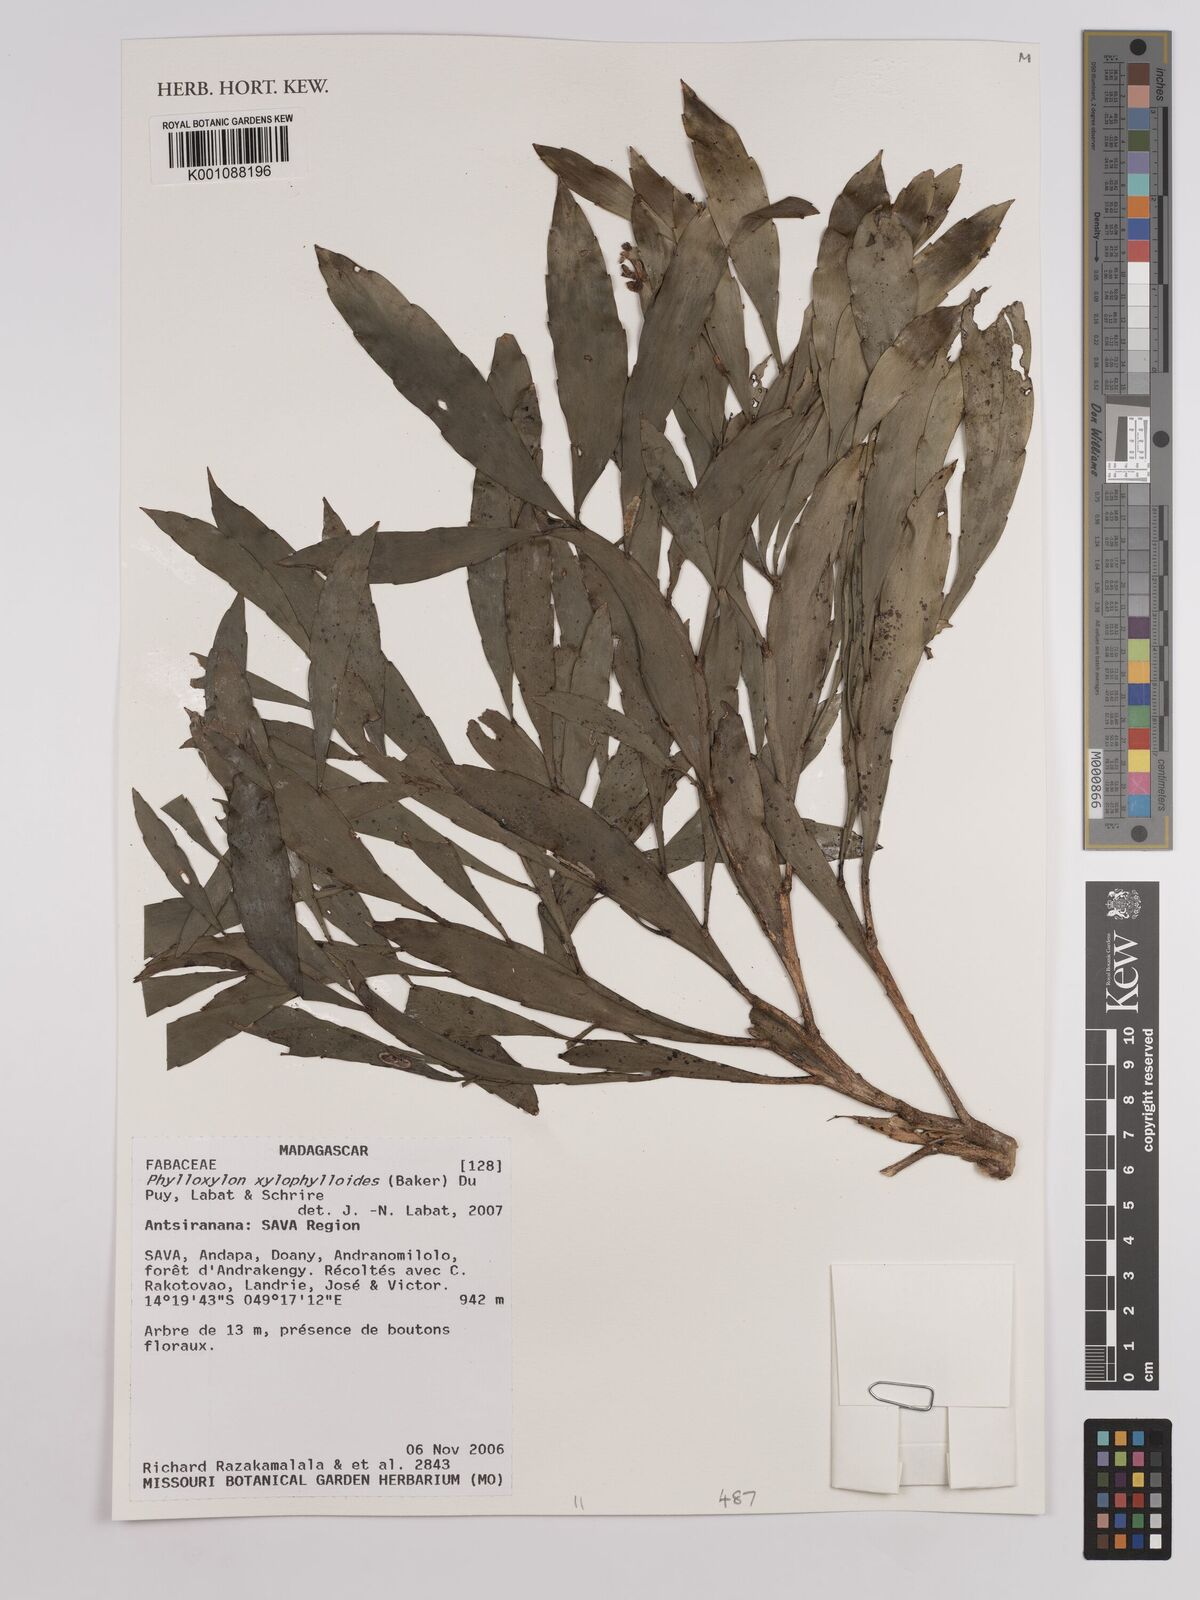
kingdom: Plantae
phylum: Tracheophyta
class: Magnoliopsida
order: Fabales
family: Fabaceae
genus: Phylloxylon
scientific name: Phylloxylon xylophylloides
